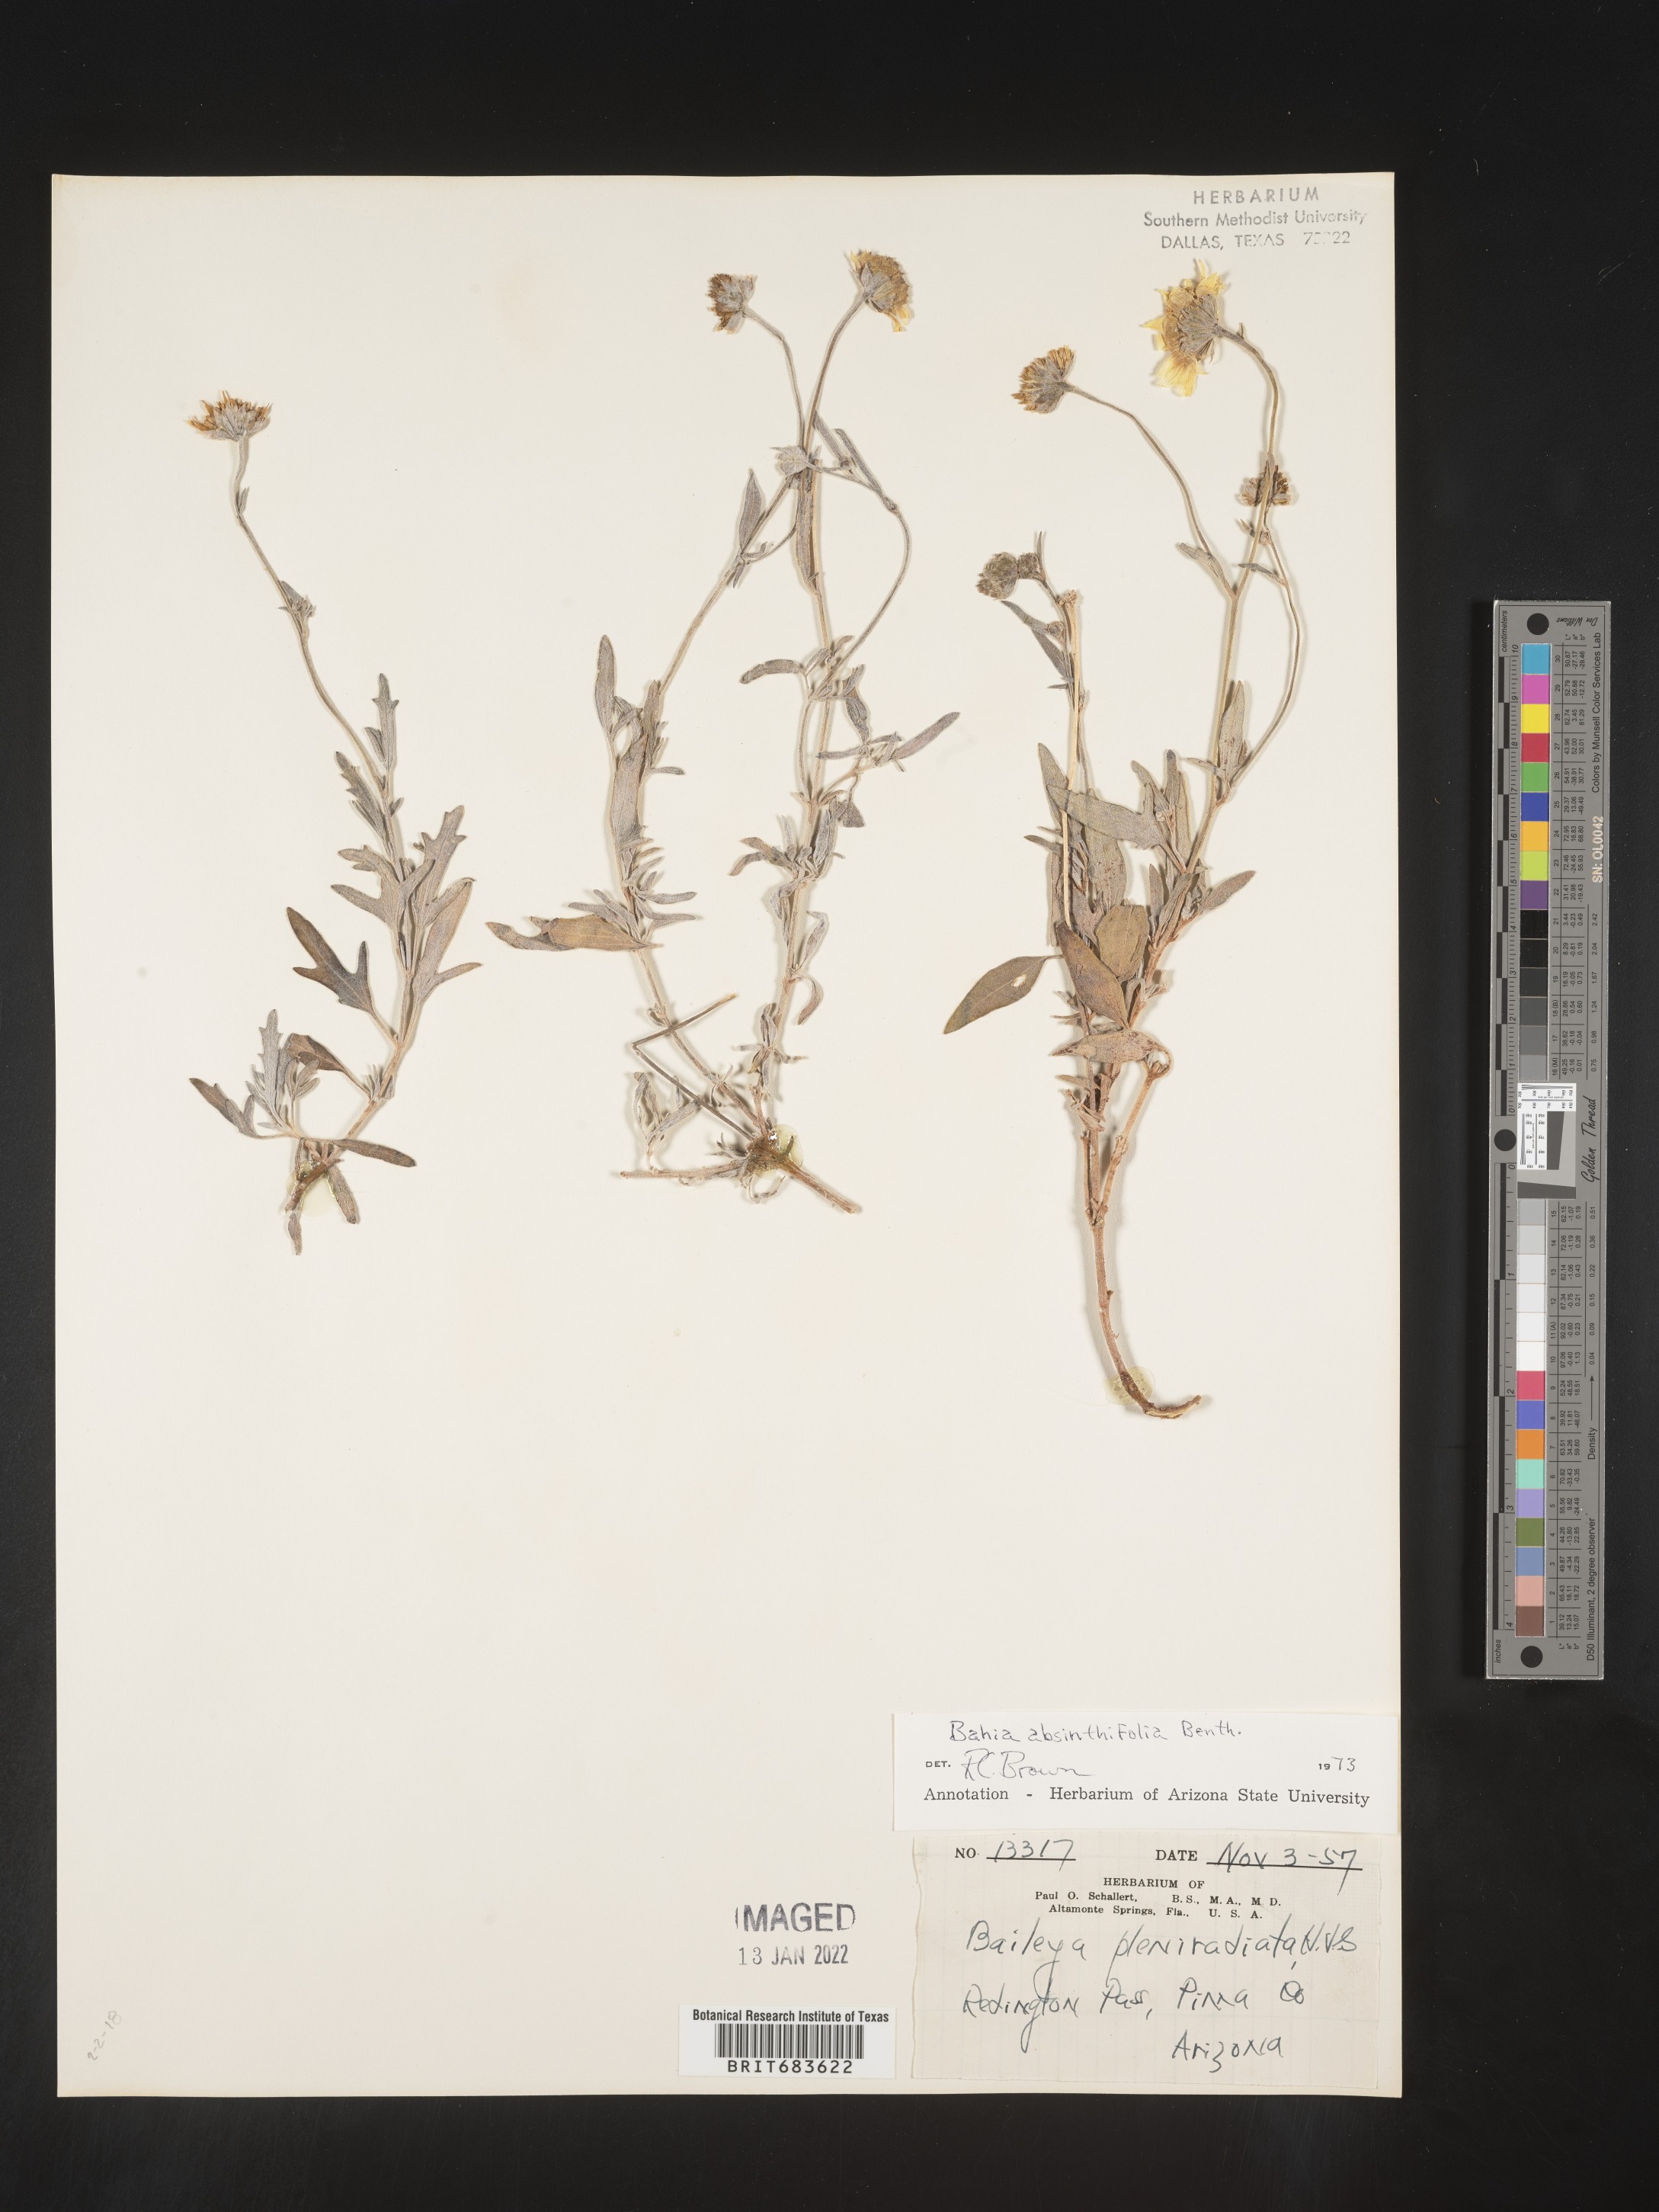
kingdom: Plantae
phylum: Tracheophyta
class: Magnoliopsida
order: Asterales
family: Asteraceae
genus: Picradeniopsis
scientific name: Picradeniopsis absinthifolia
